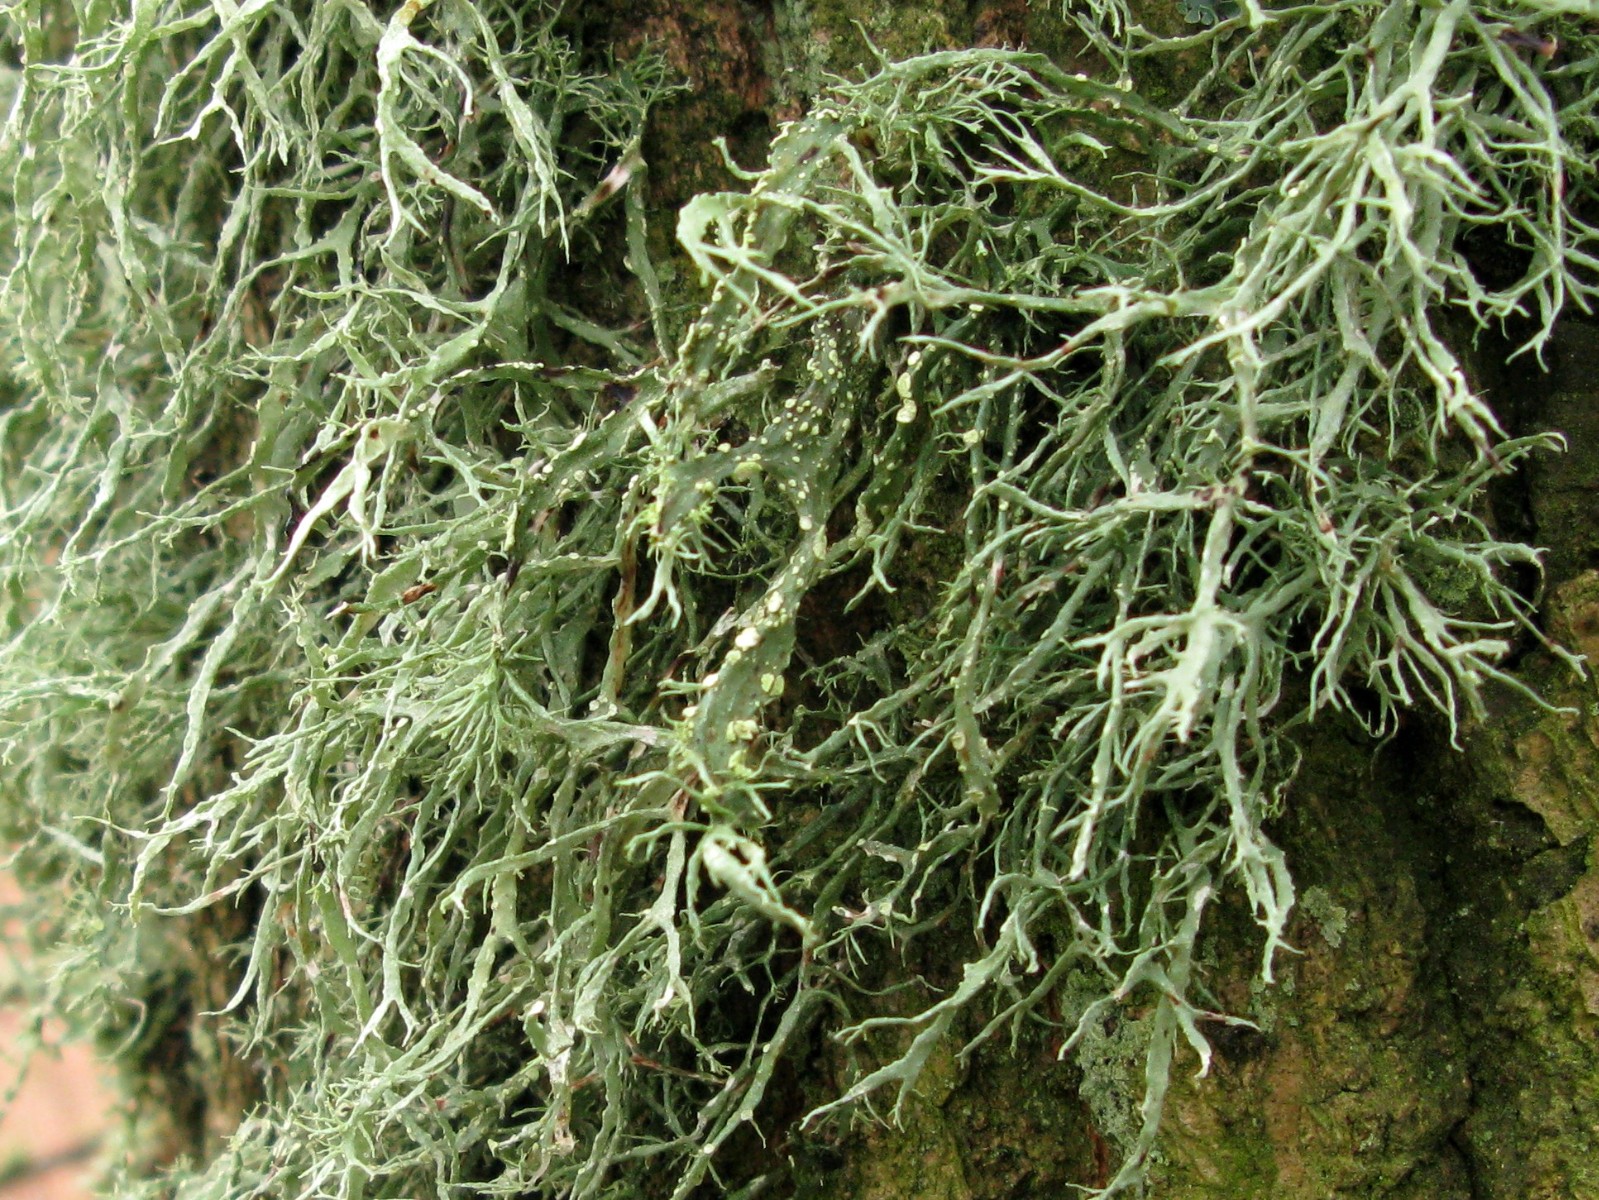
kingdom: Fungi
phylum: Ascomycota
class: Lecanoromycetes
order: Lecanorales
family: Ramalinaceae
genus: Ramalina
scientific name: Ramalina farinacea
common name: melet grenlav
